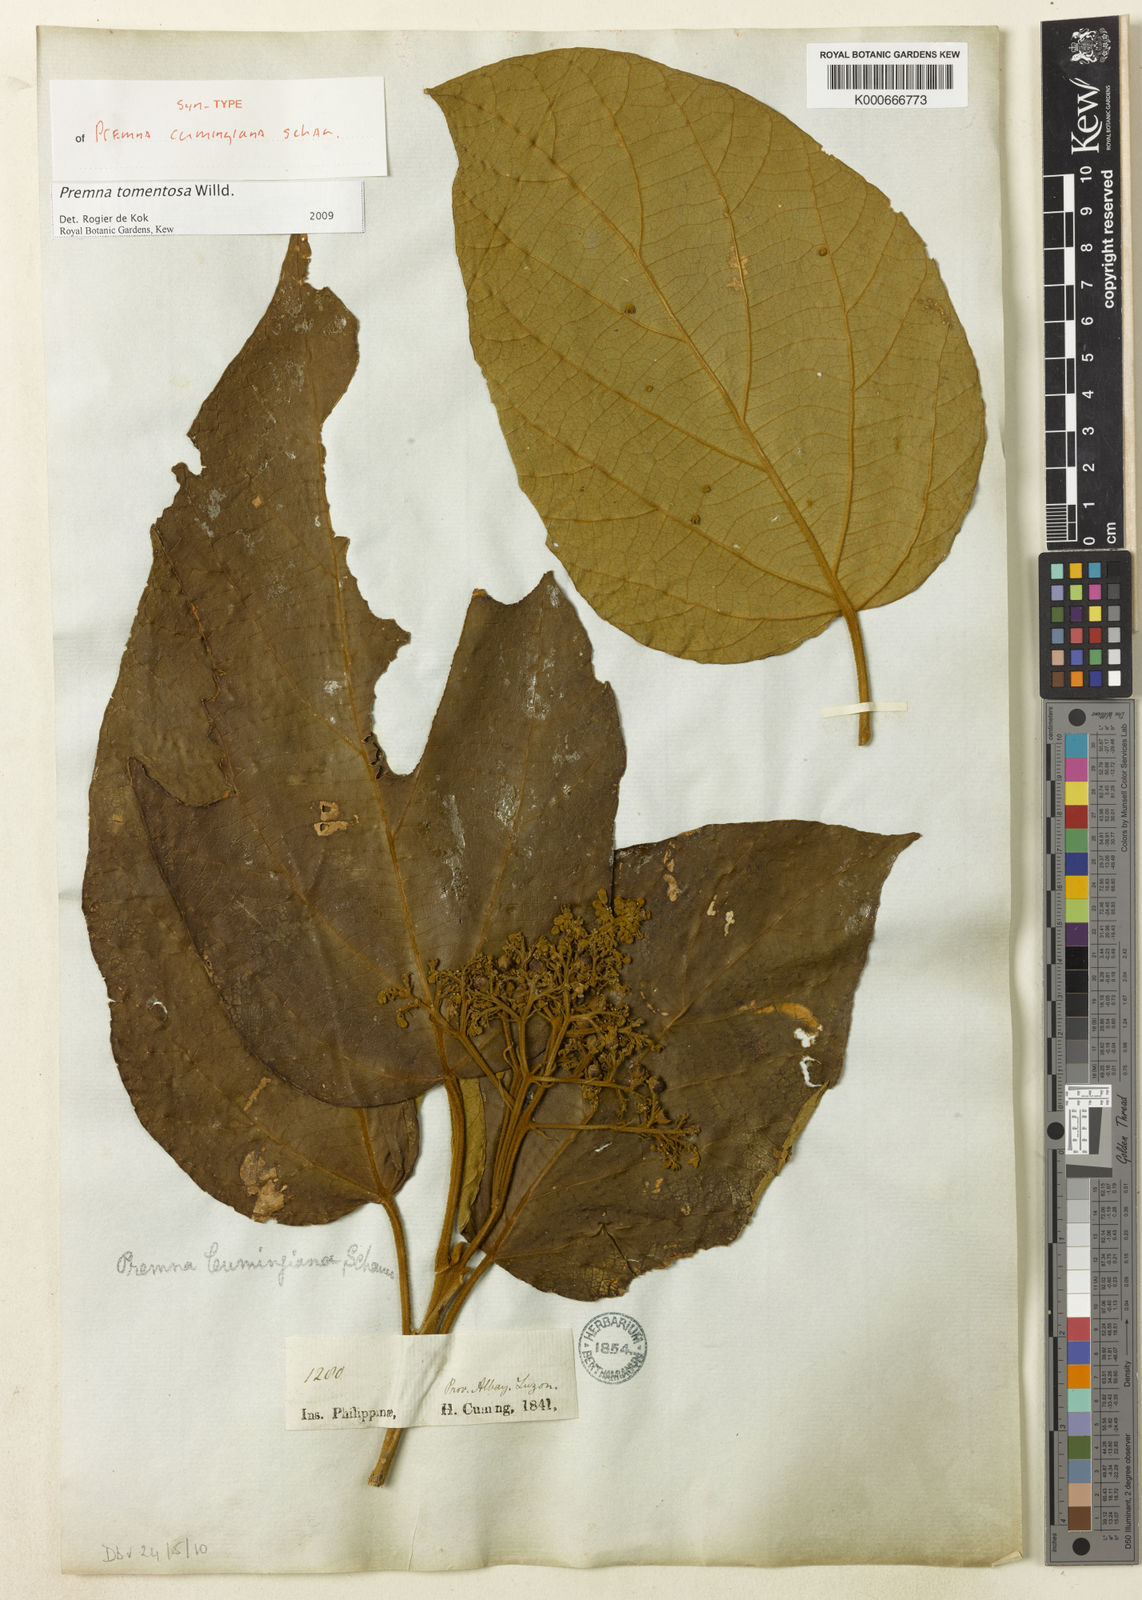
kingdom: Plantae
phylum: Tracheophyta
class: Magnoliopsida
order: Lamiales
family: Lamiaceae
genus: Premna
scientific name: Premna tomentosa
